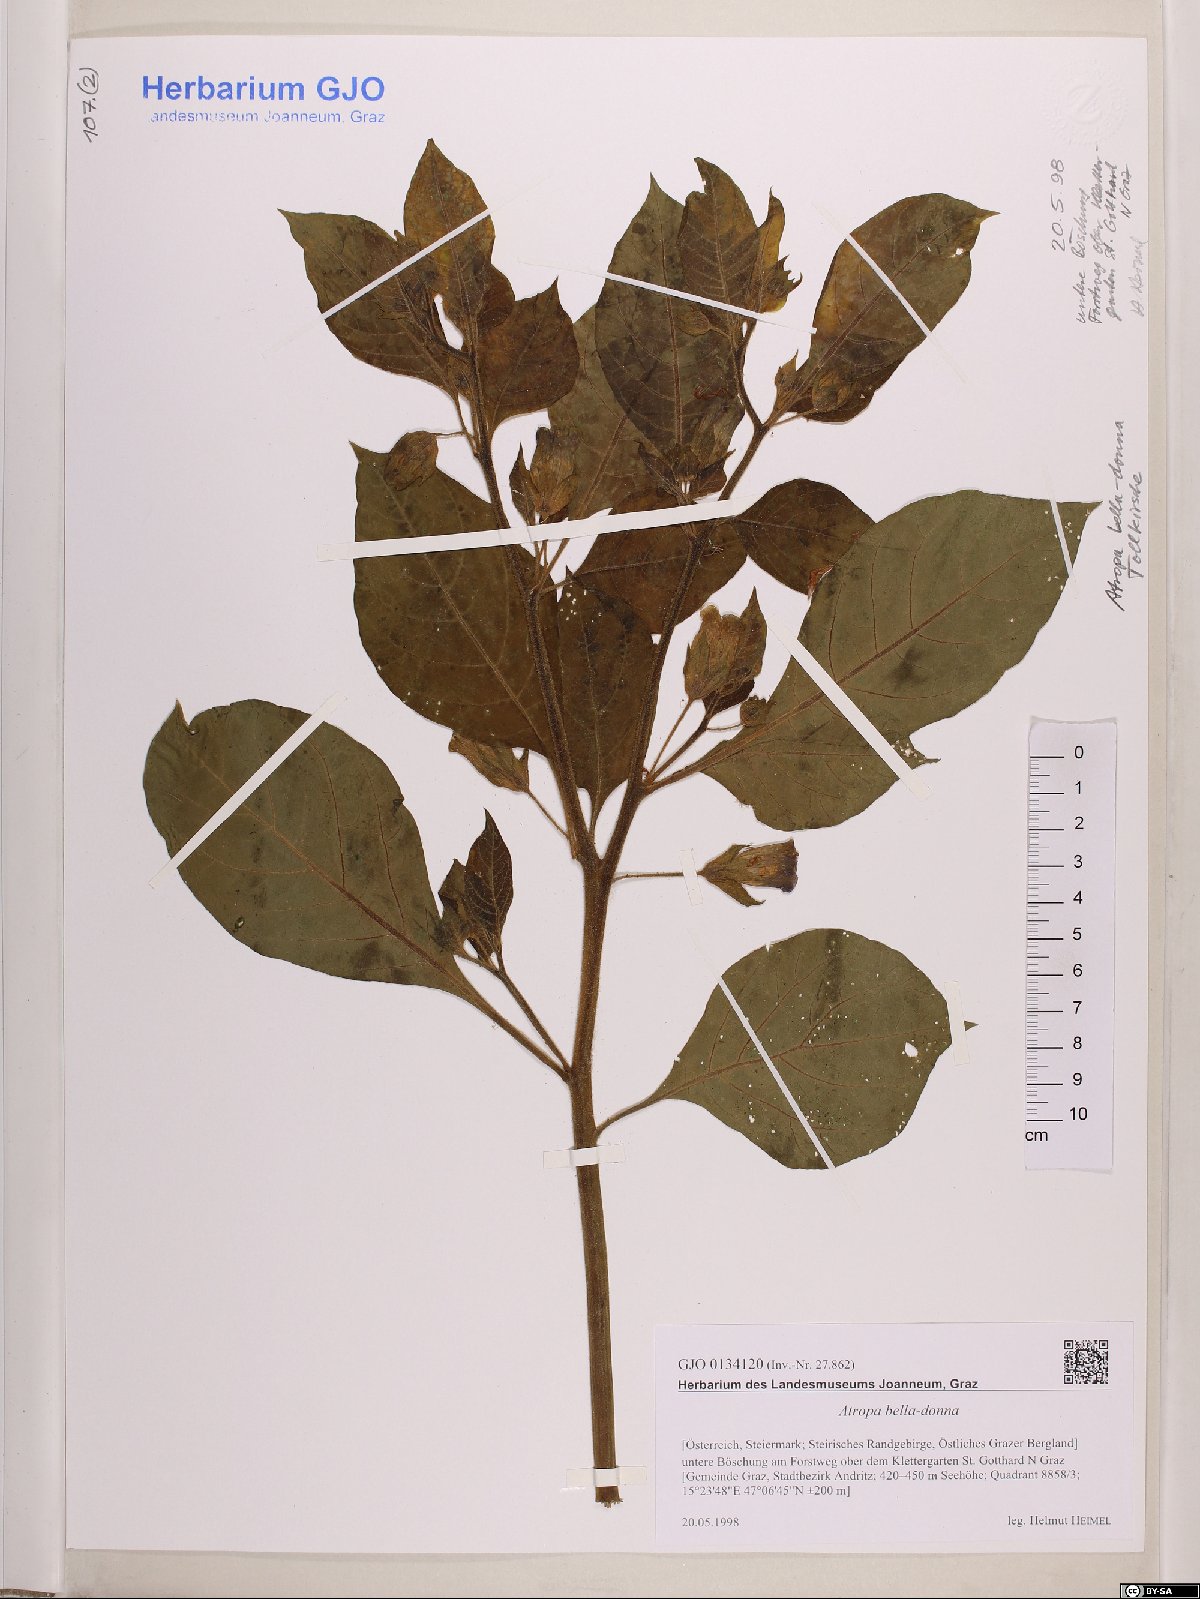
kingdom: Plantae
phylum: Tracheophyta
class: Magnoliopsida
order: Solanales
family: Solanaceae
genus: Atropa
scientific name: Atropa belladonna
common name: Deadly nightshade
